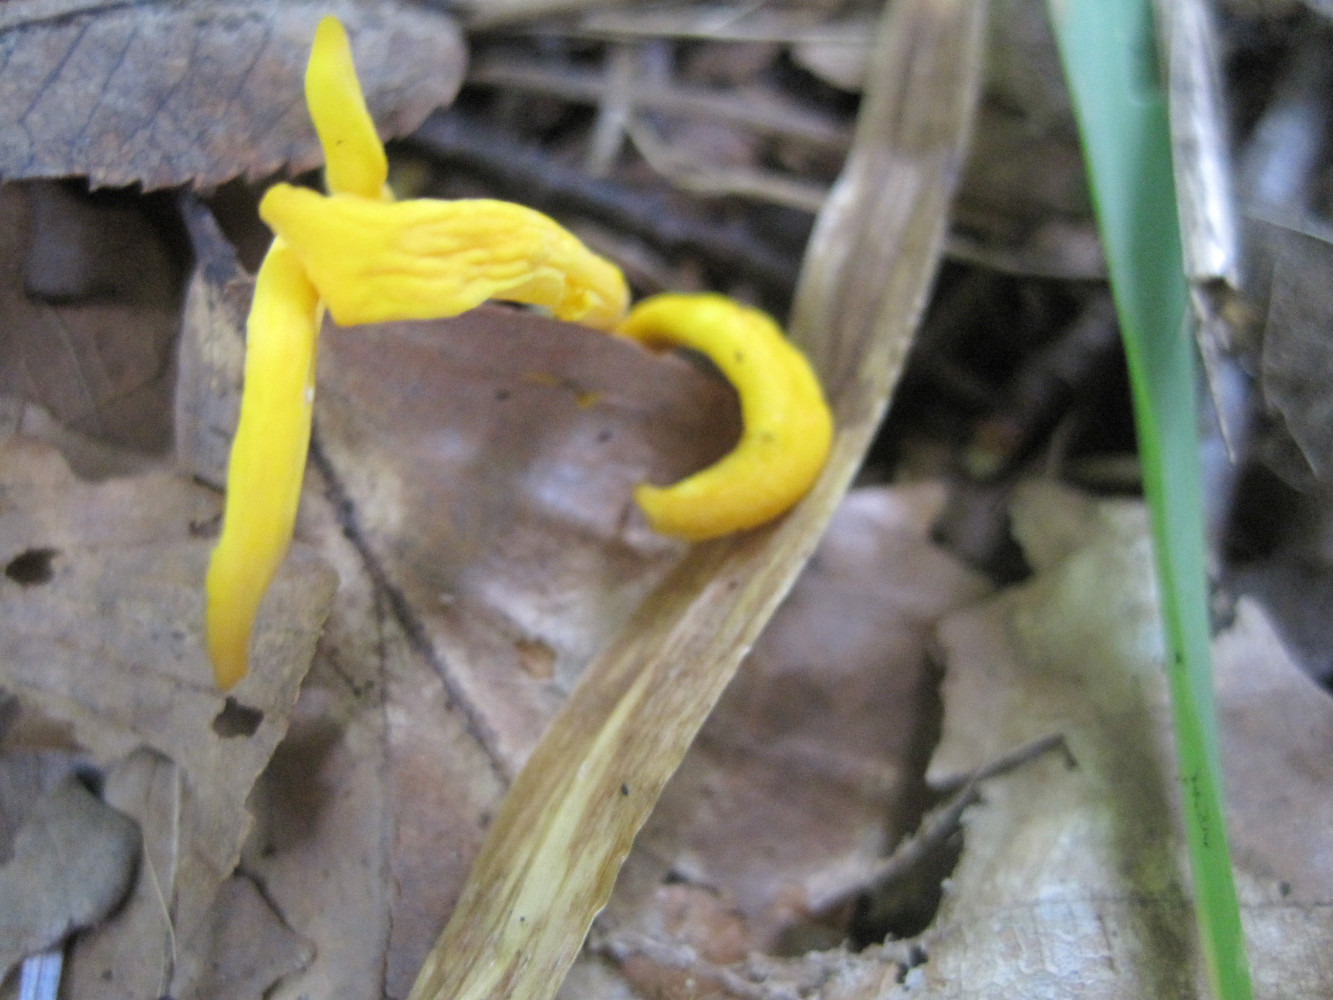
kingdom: Fungi
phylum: Basidiomycota
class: Agaricomycetes
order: Agaricales
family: Clavariaceae
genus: Clavulinopsis
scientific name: Clavulinopsis helvola
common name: orangegul køllesvamp
